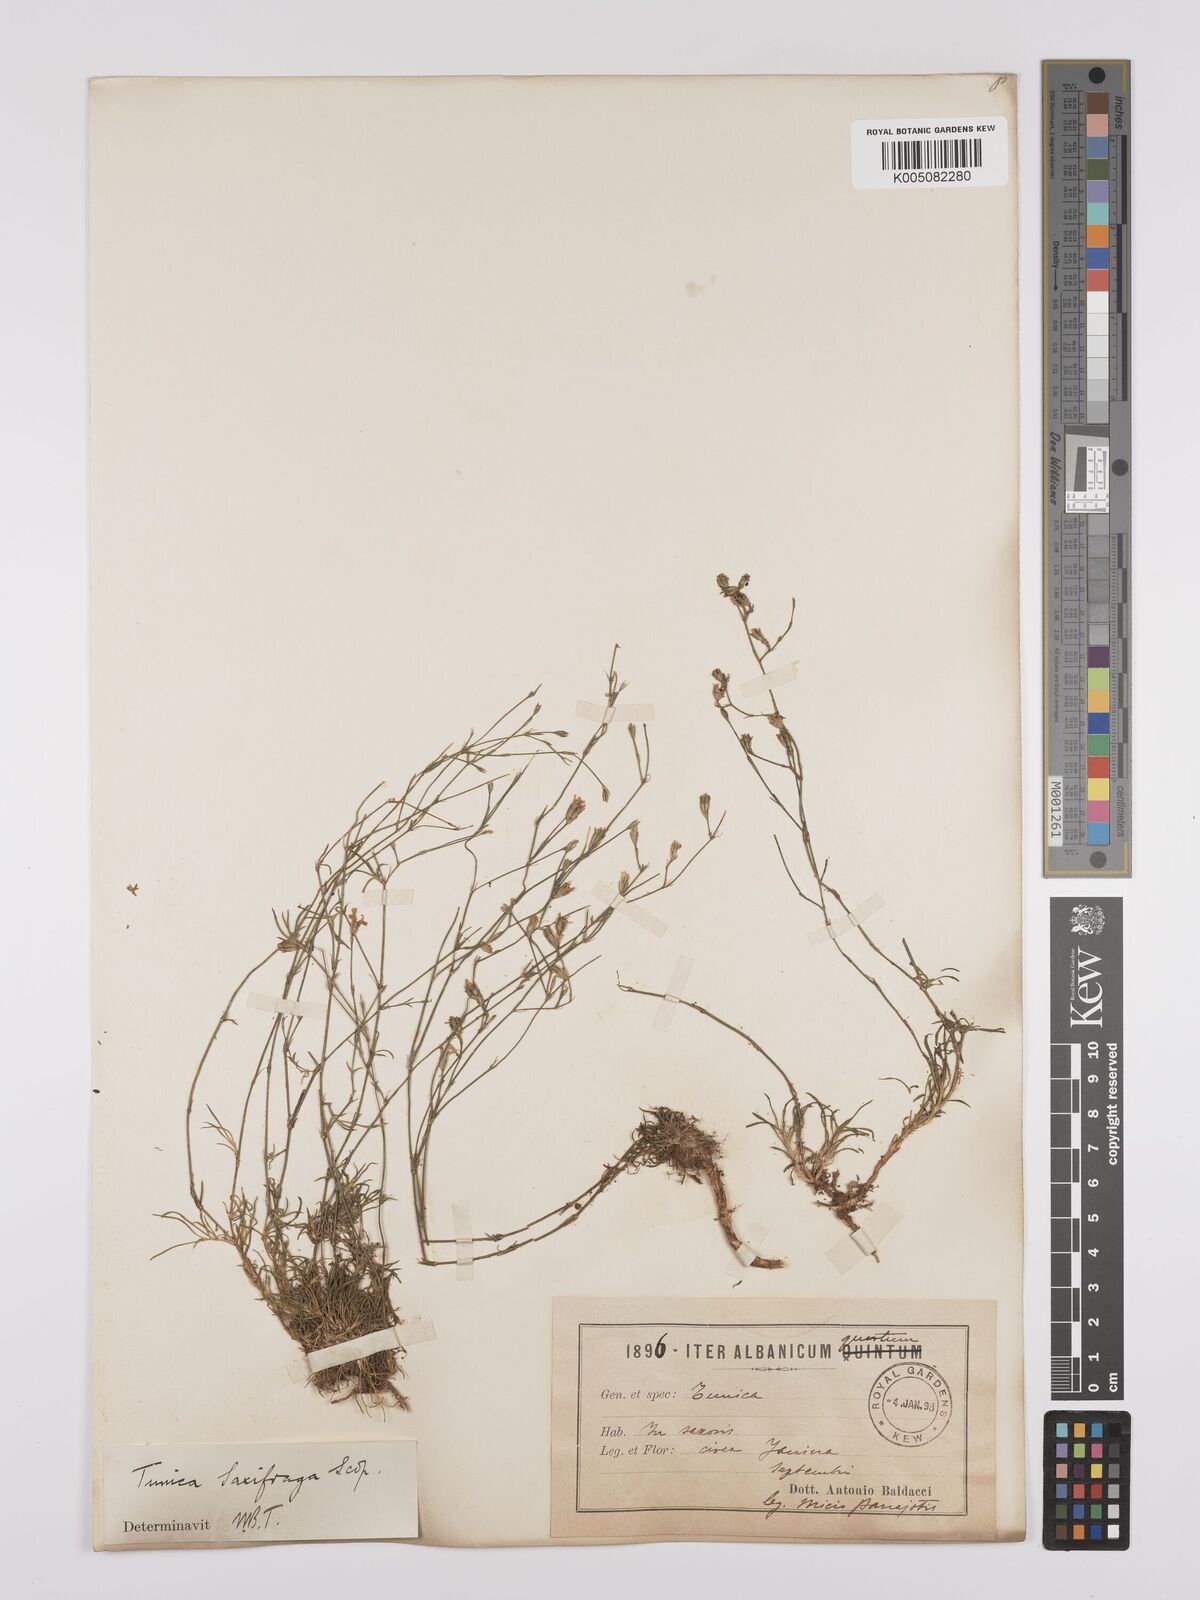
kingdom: Plantae
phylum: Tracheophyta
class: Magnoliopsida
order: Caryophyllales
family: Caryophyllaceae
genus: Petrorhagia
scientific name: Petrorhagia saxifraga
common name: Tunicflower
